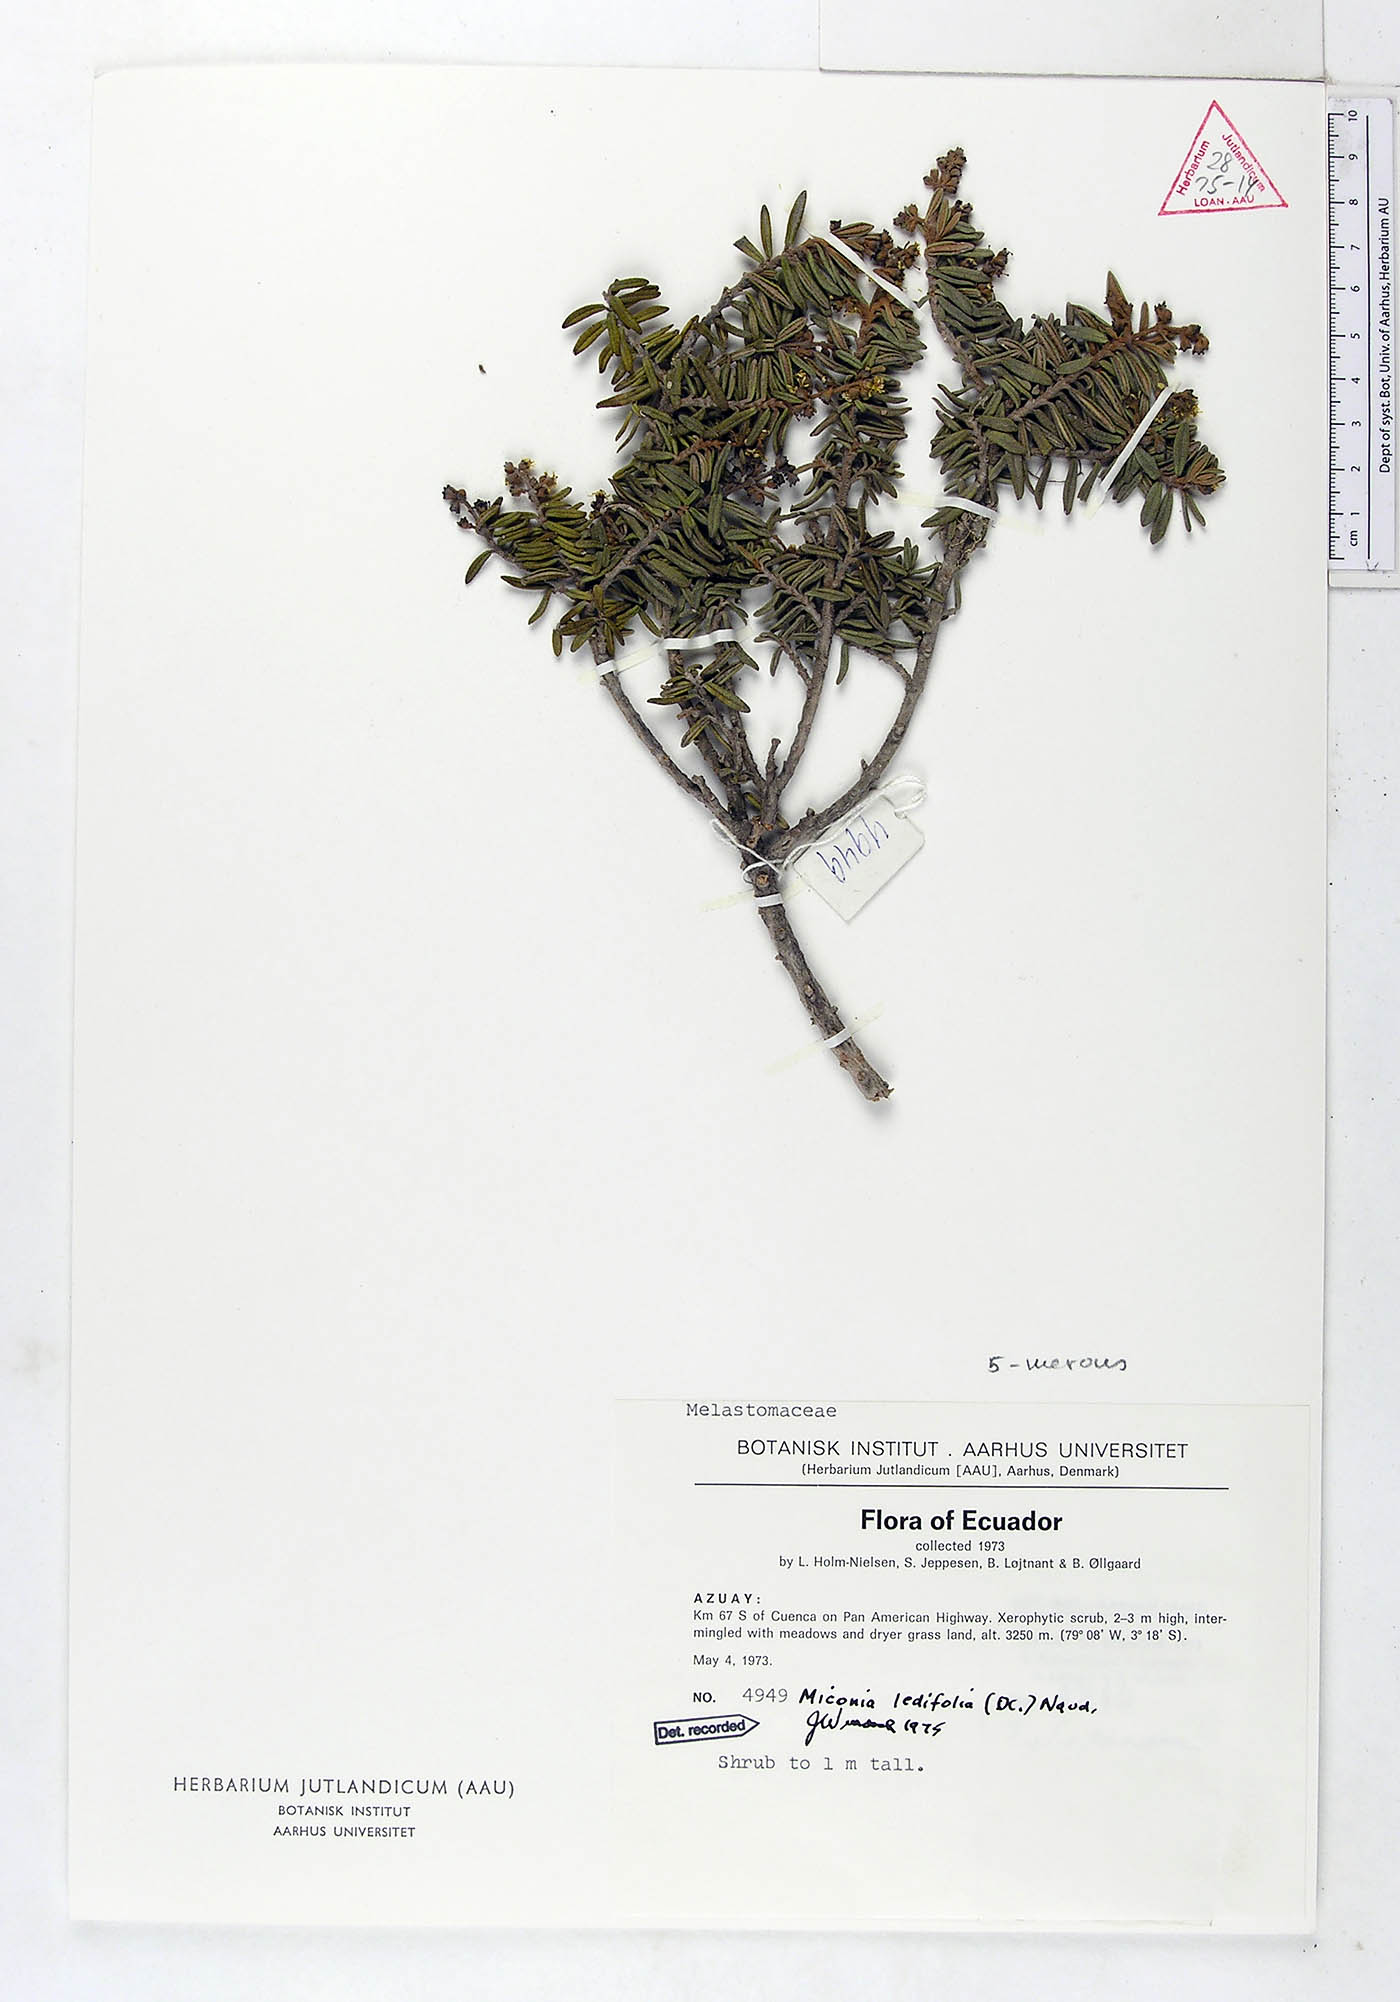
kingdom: Plantae
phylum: Tracheophyta
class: Magnoliopsida
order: Myrtales
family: Melastomataceae
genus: Miconia
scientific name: Miconia ledifolia
